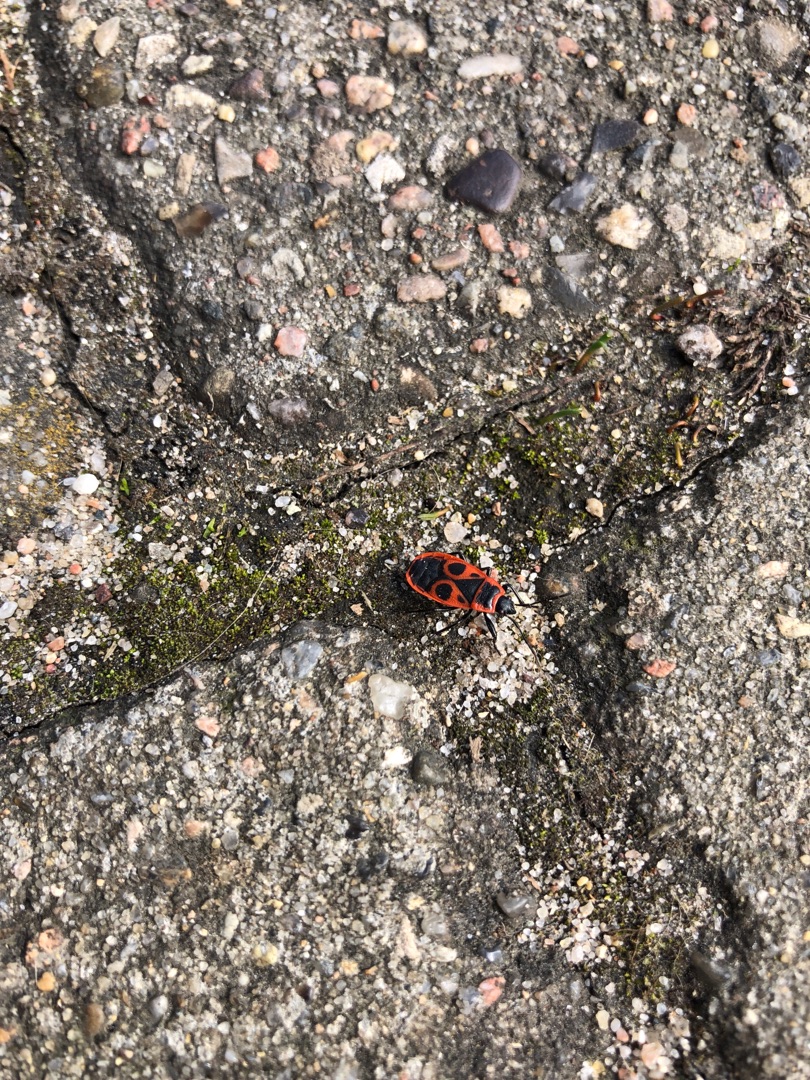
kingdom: Animalia
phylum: Arthropoda
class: Insecta
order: Hemiptera
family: Pyrrhocoridae
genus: Pyrrhocoris
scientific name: Pyrrhocoris apterus
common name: Ildtæge
